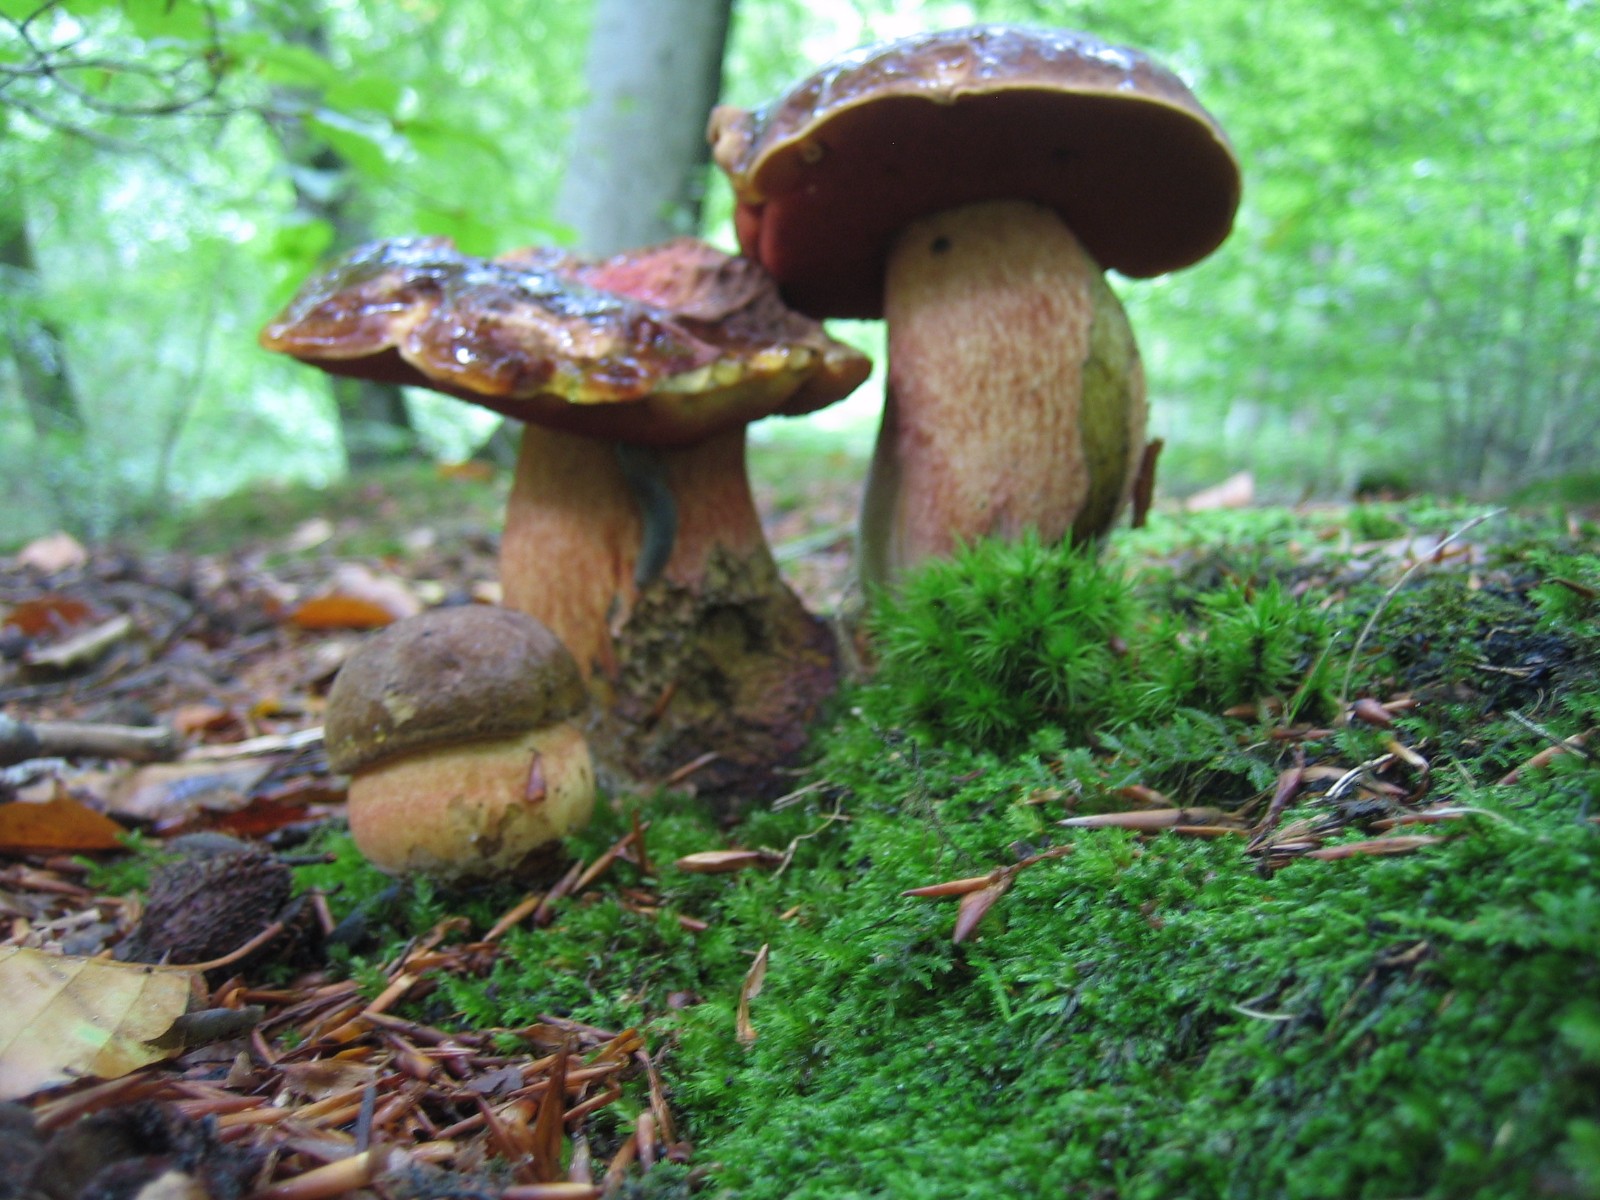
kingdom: Fungi
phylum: Basidiomycota
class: Agaricomycetes
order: Boletales
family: Boletaceae
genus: Neoboletus
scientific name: Neoboletus erythropus
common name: punktstokket indigorørhat
